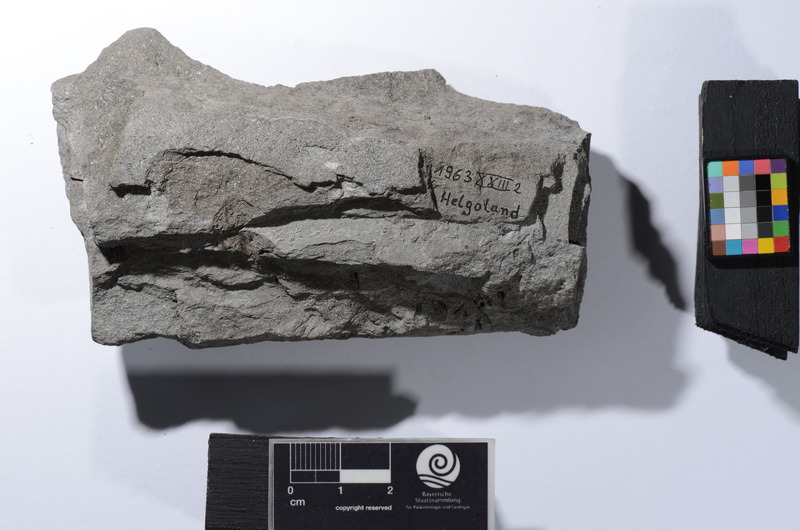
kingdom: Animalia
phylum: Chordata
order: Beryciformes
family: Berycidae
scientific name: Berycidae
